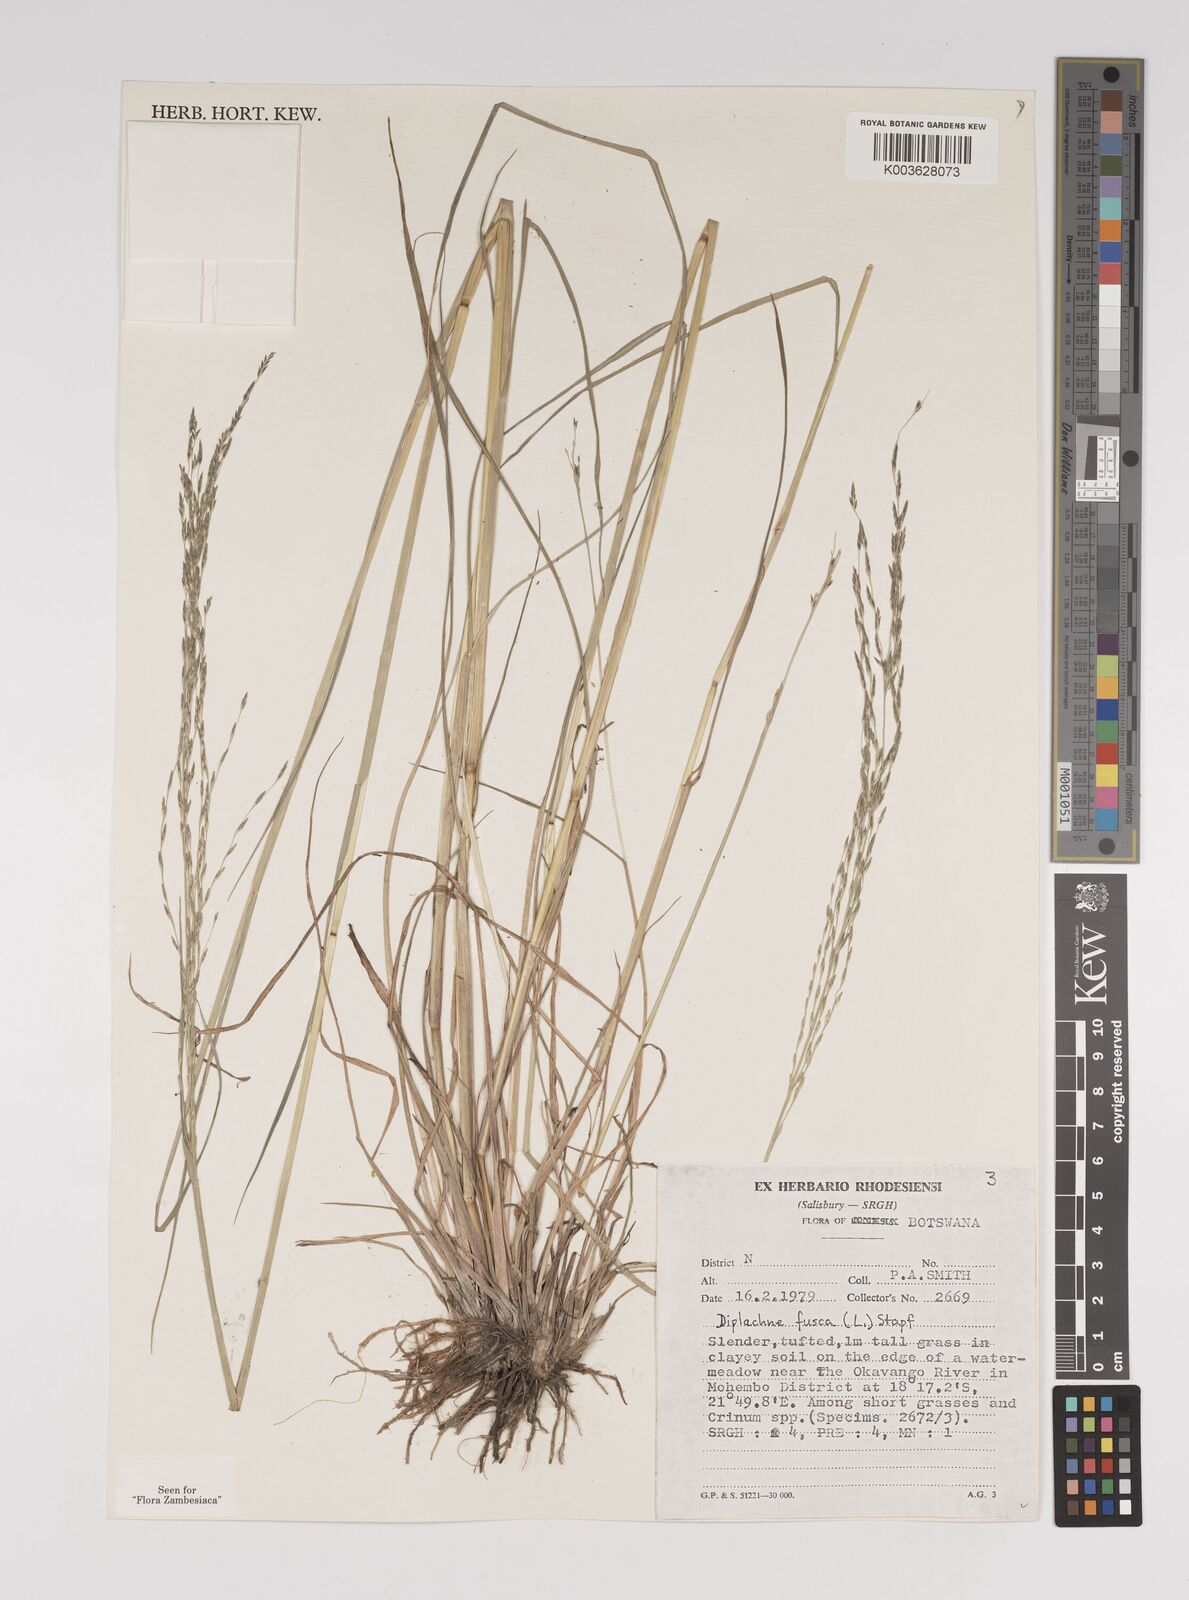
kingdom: Plantae
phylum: Tracheophyta
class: Liliopsida
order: Poales
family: Poaceae
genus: Diplachne
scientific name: Diplachne fusca
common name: Brown beetle grass
